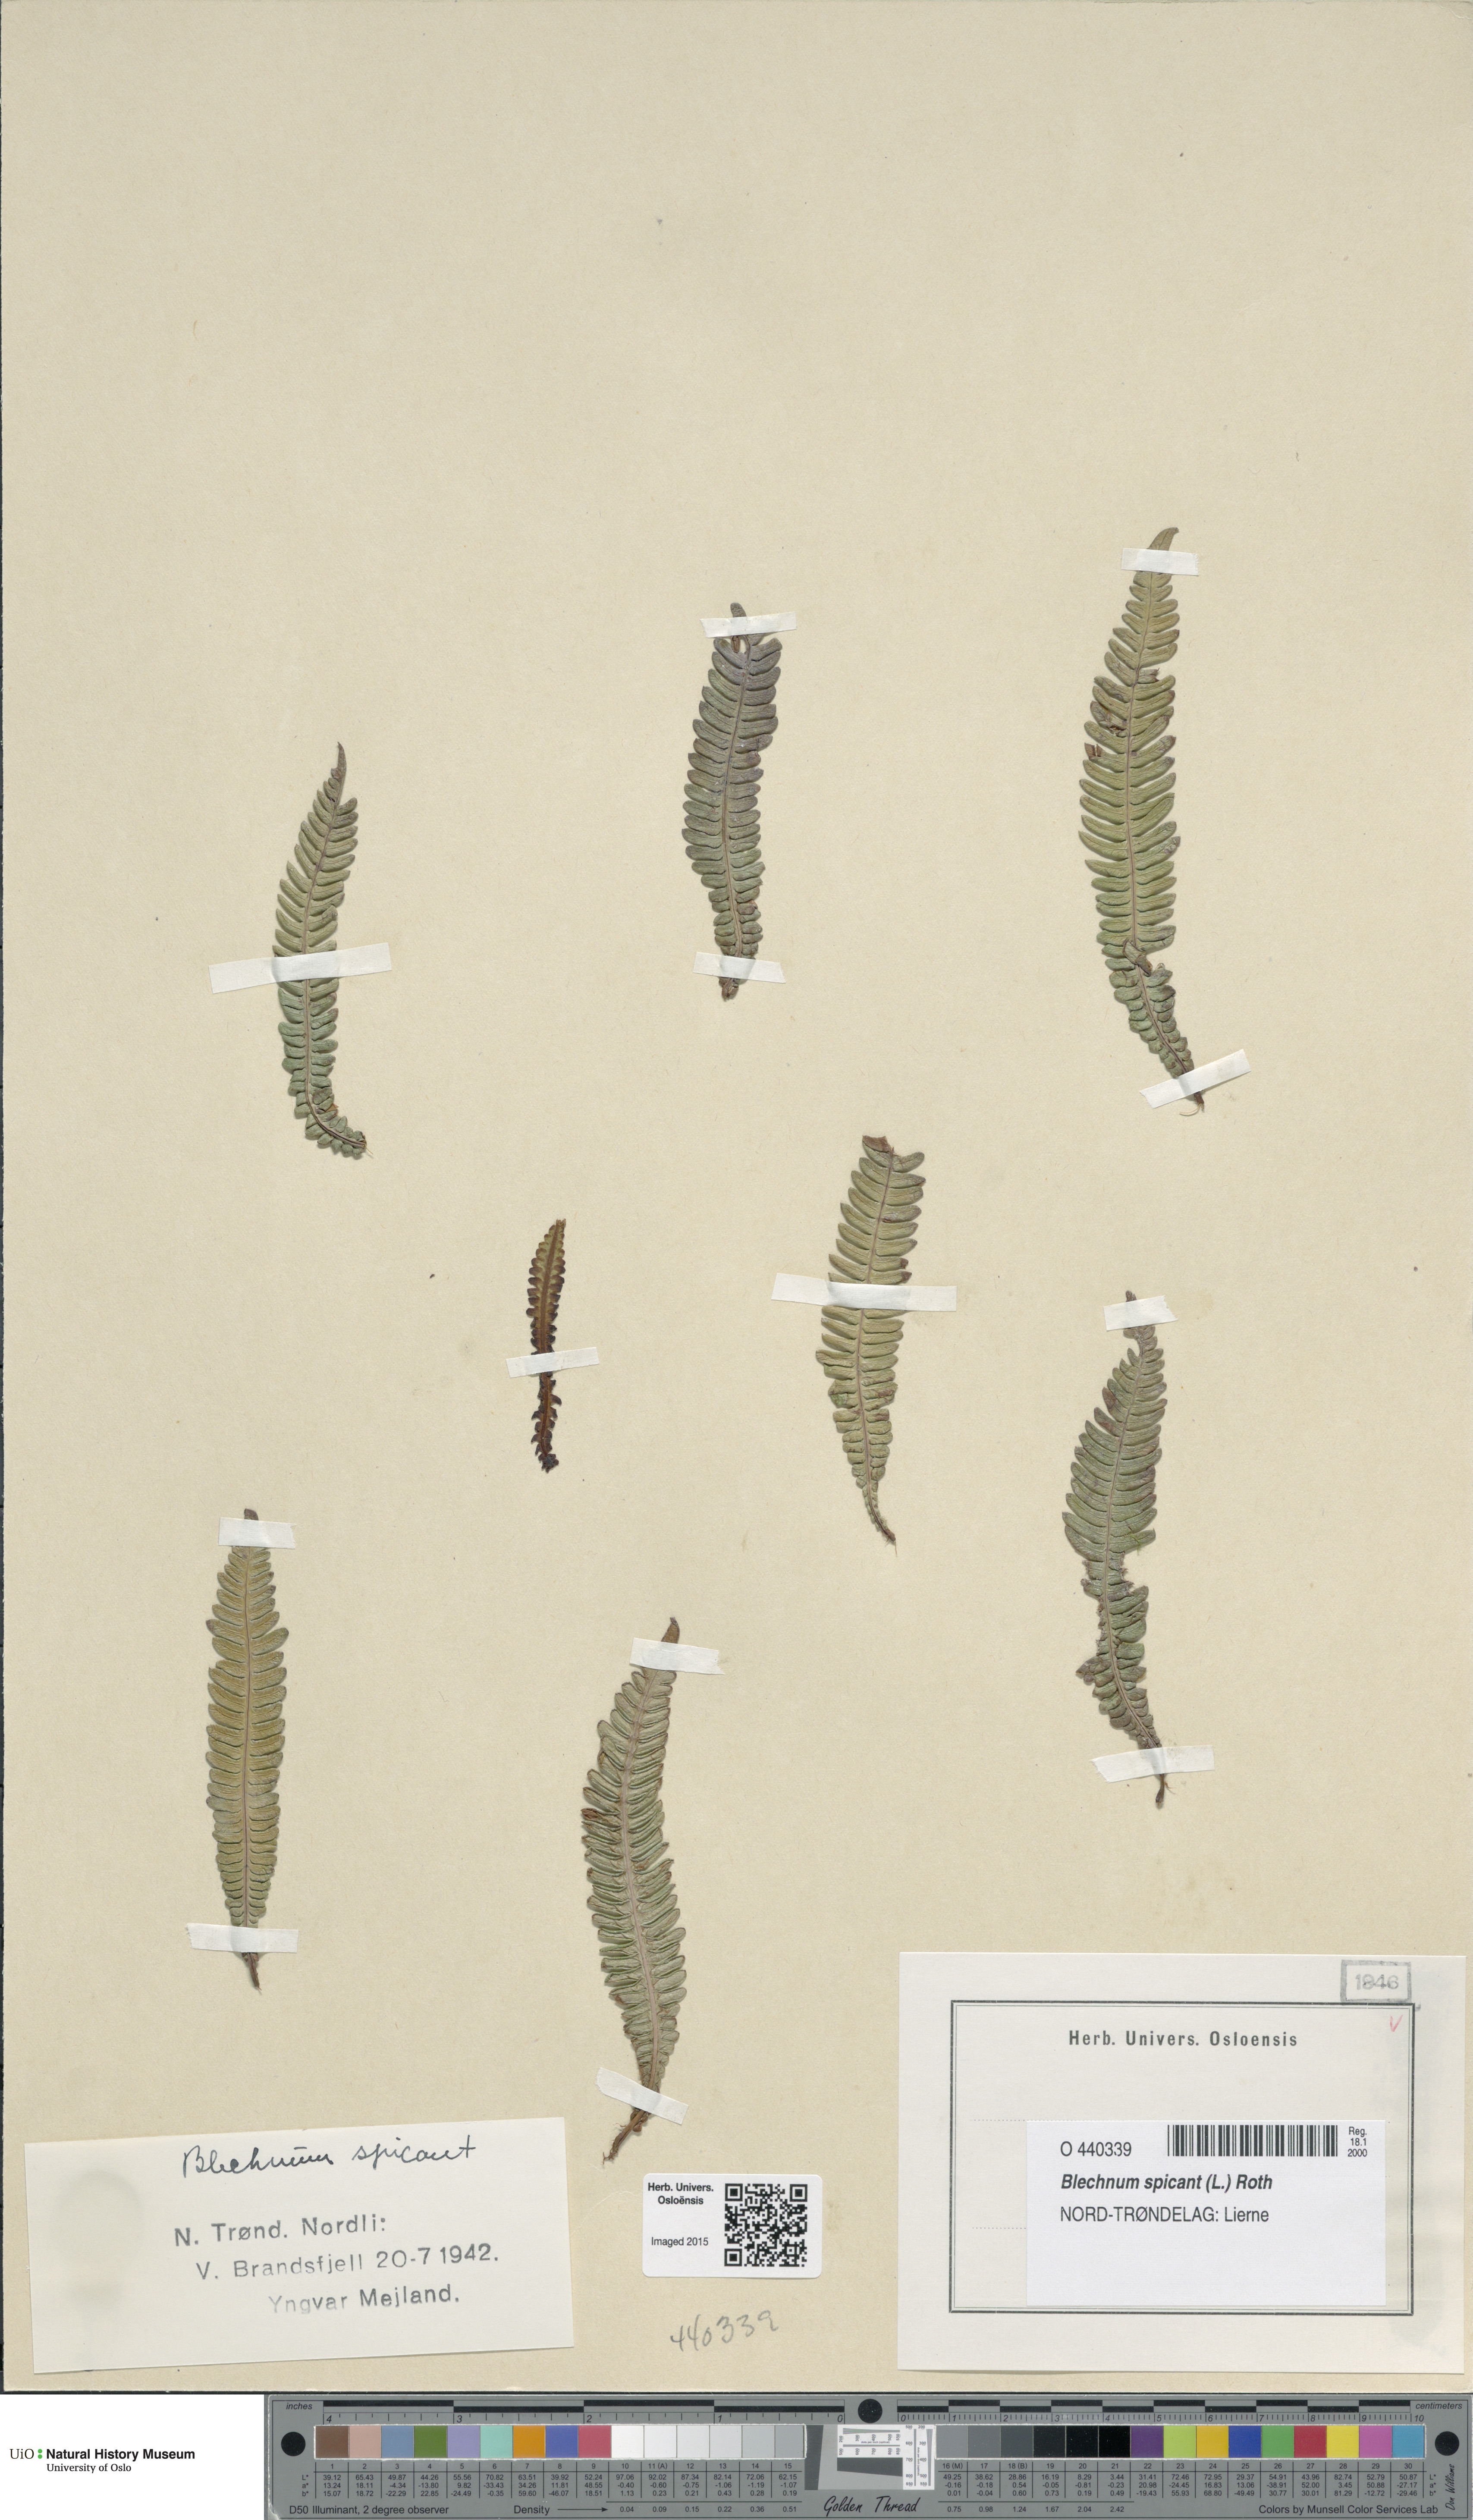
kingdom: Plantae
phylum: Tracheophyta
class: Polypodiopsida
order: Polypodiales
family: Blechnaceae
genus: Struthiopteris
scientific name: Struthiopteris spicant
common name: Deer fern
